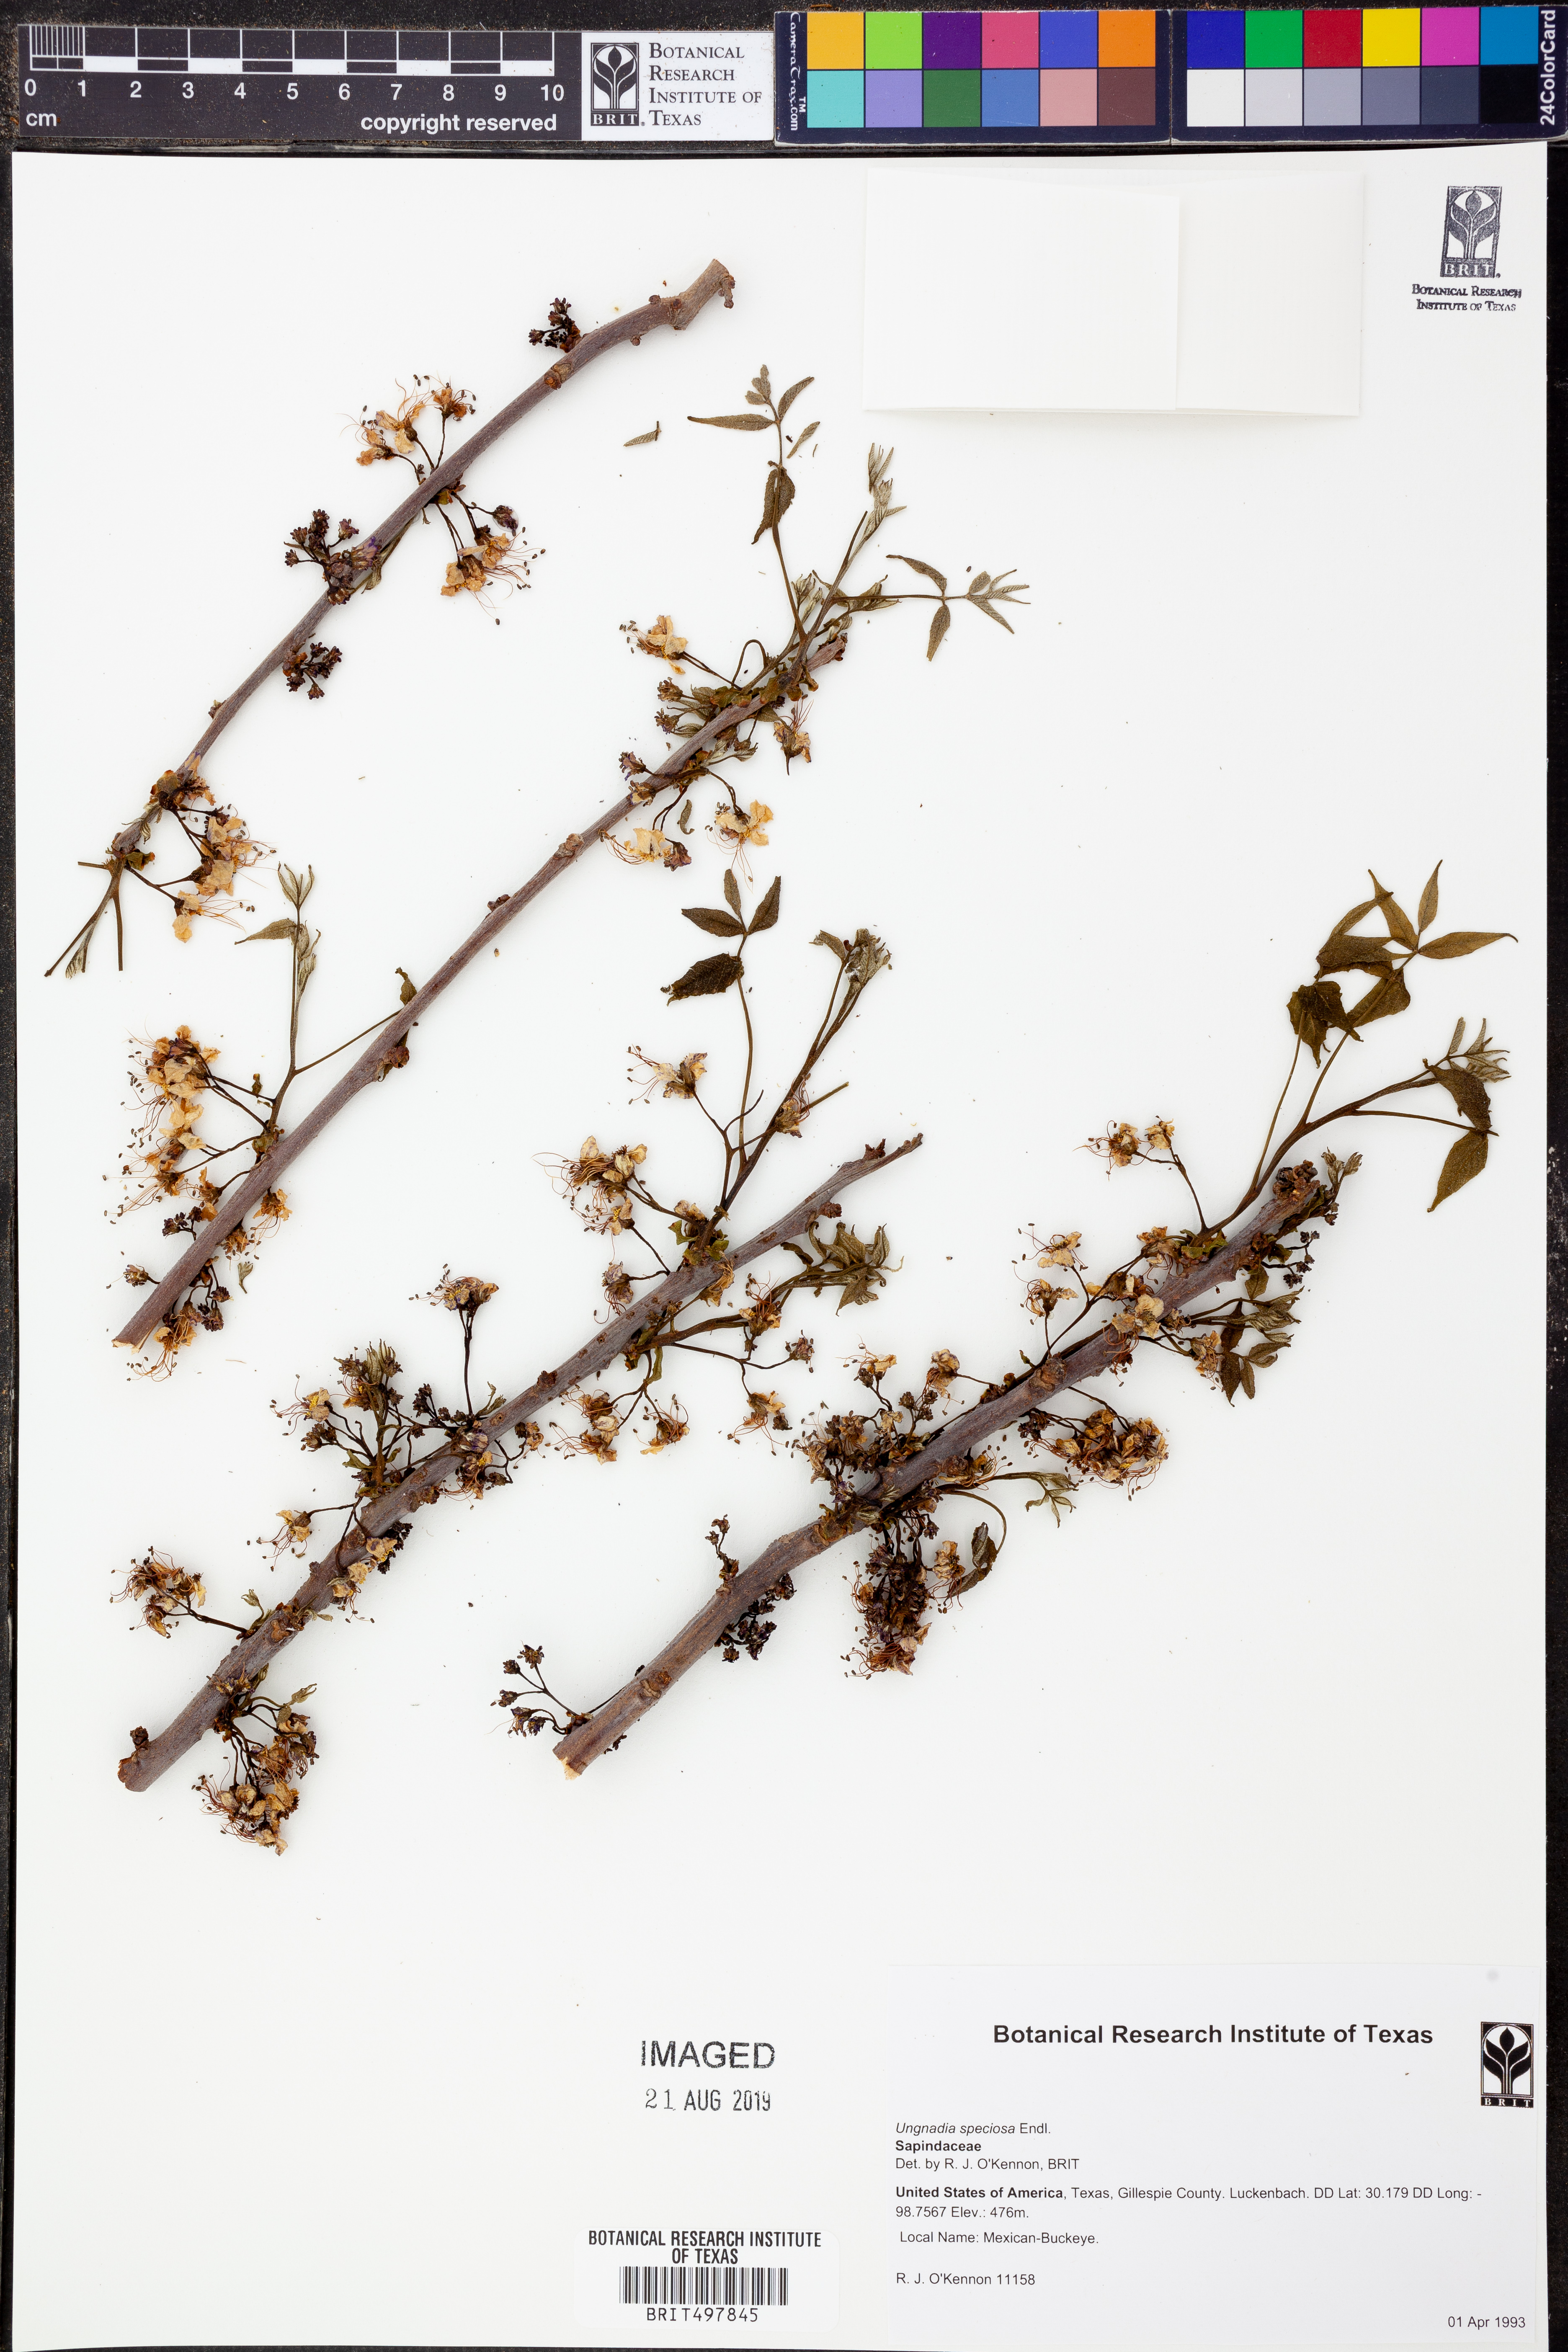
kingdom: Plantae
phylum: Tracheophyta
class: Magnoliopsida
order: Sapindales
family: Sapindaceae
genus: Ungnadia
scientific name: Ungnadia speciosa
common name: Texas-buckeye
